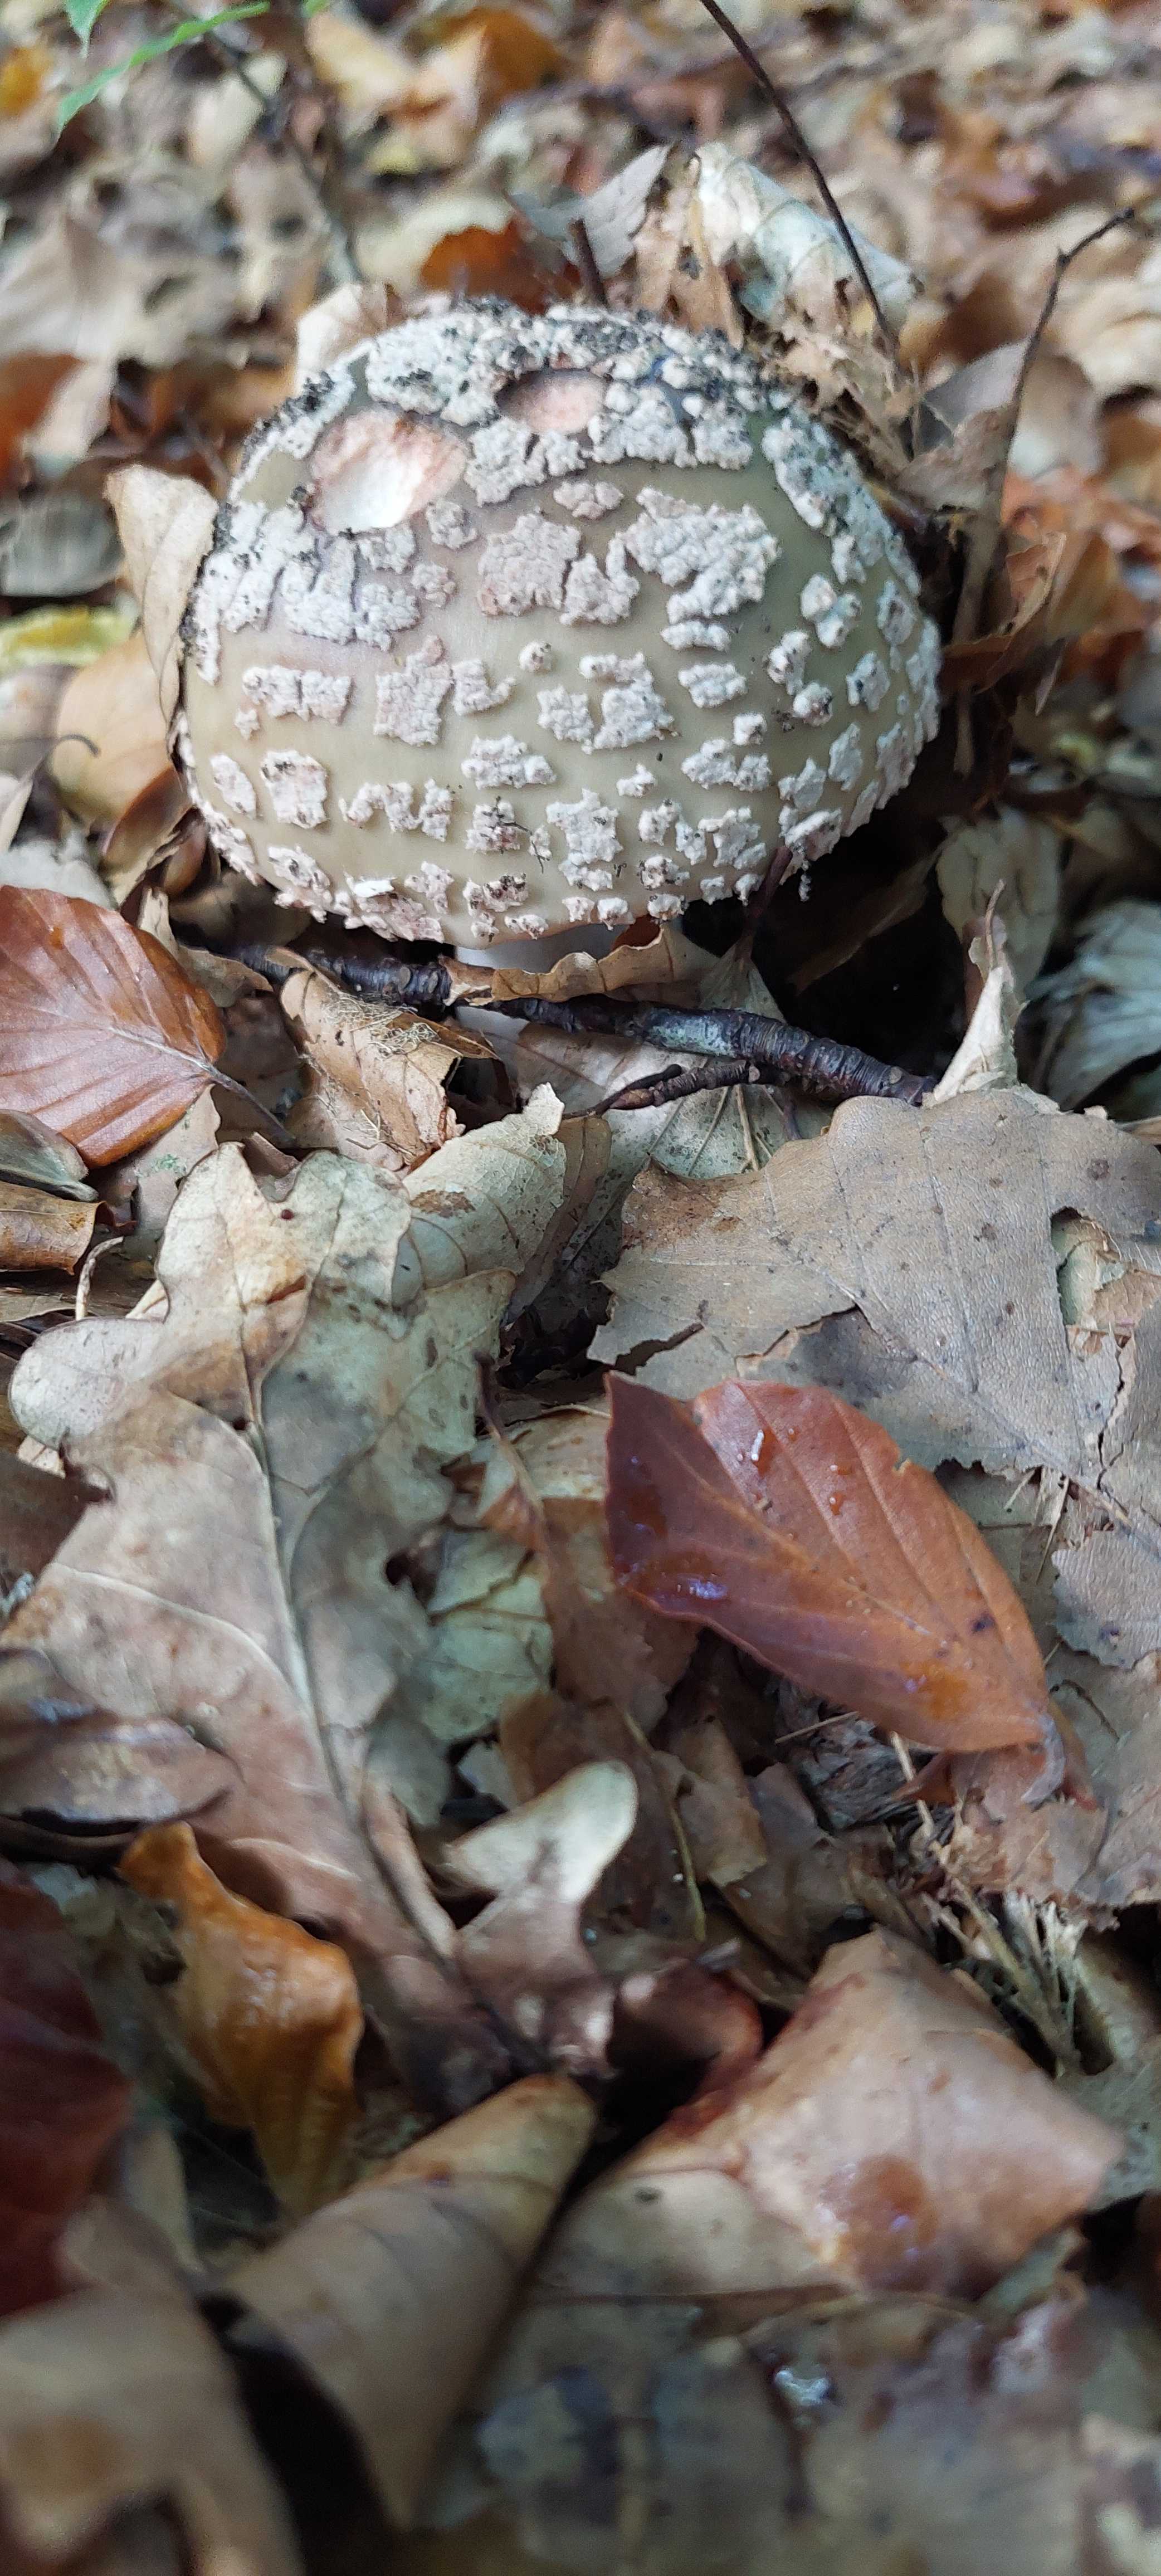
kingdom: Fungi
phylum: Basidiomycota
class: Agaricomycetes
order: Agaricales
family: Amanitaceae
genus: Amanita
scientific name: Amanita rubescens
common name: rødmende fluesvamp
